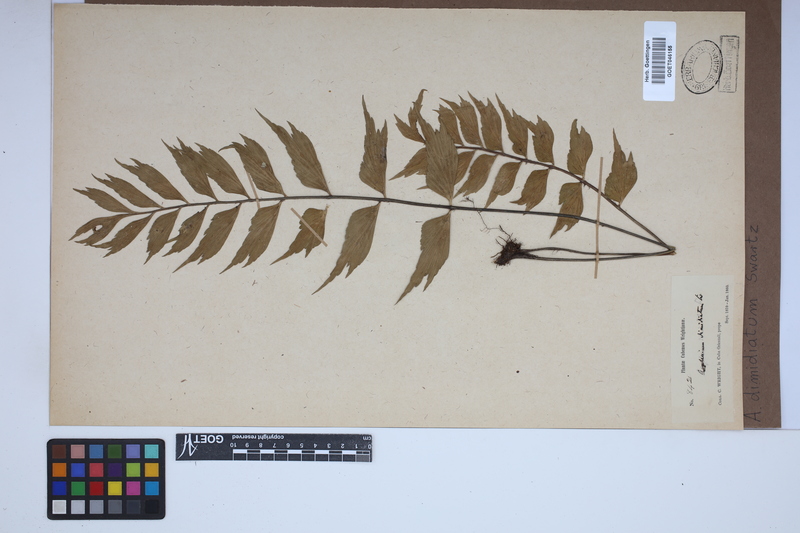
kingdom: Plantae
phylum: Tracheophyta
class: Polypodiopsida
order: Polypodiales
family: Aspleniaceae
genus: Asplenium
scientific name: Asplenium dimidiatum
